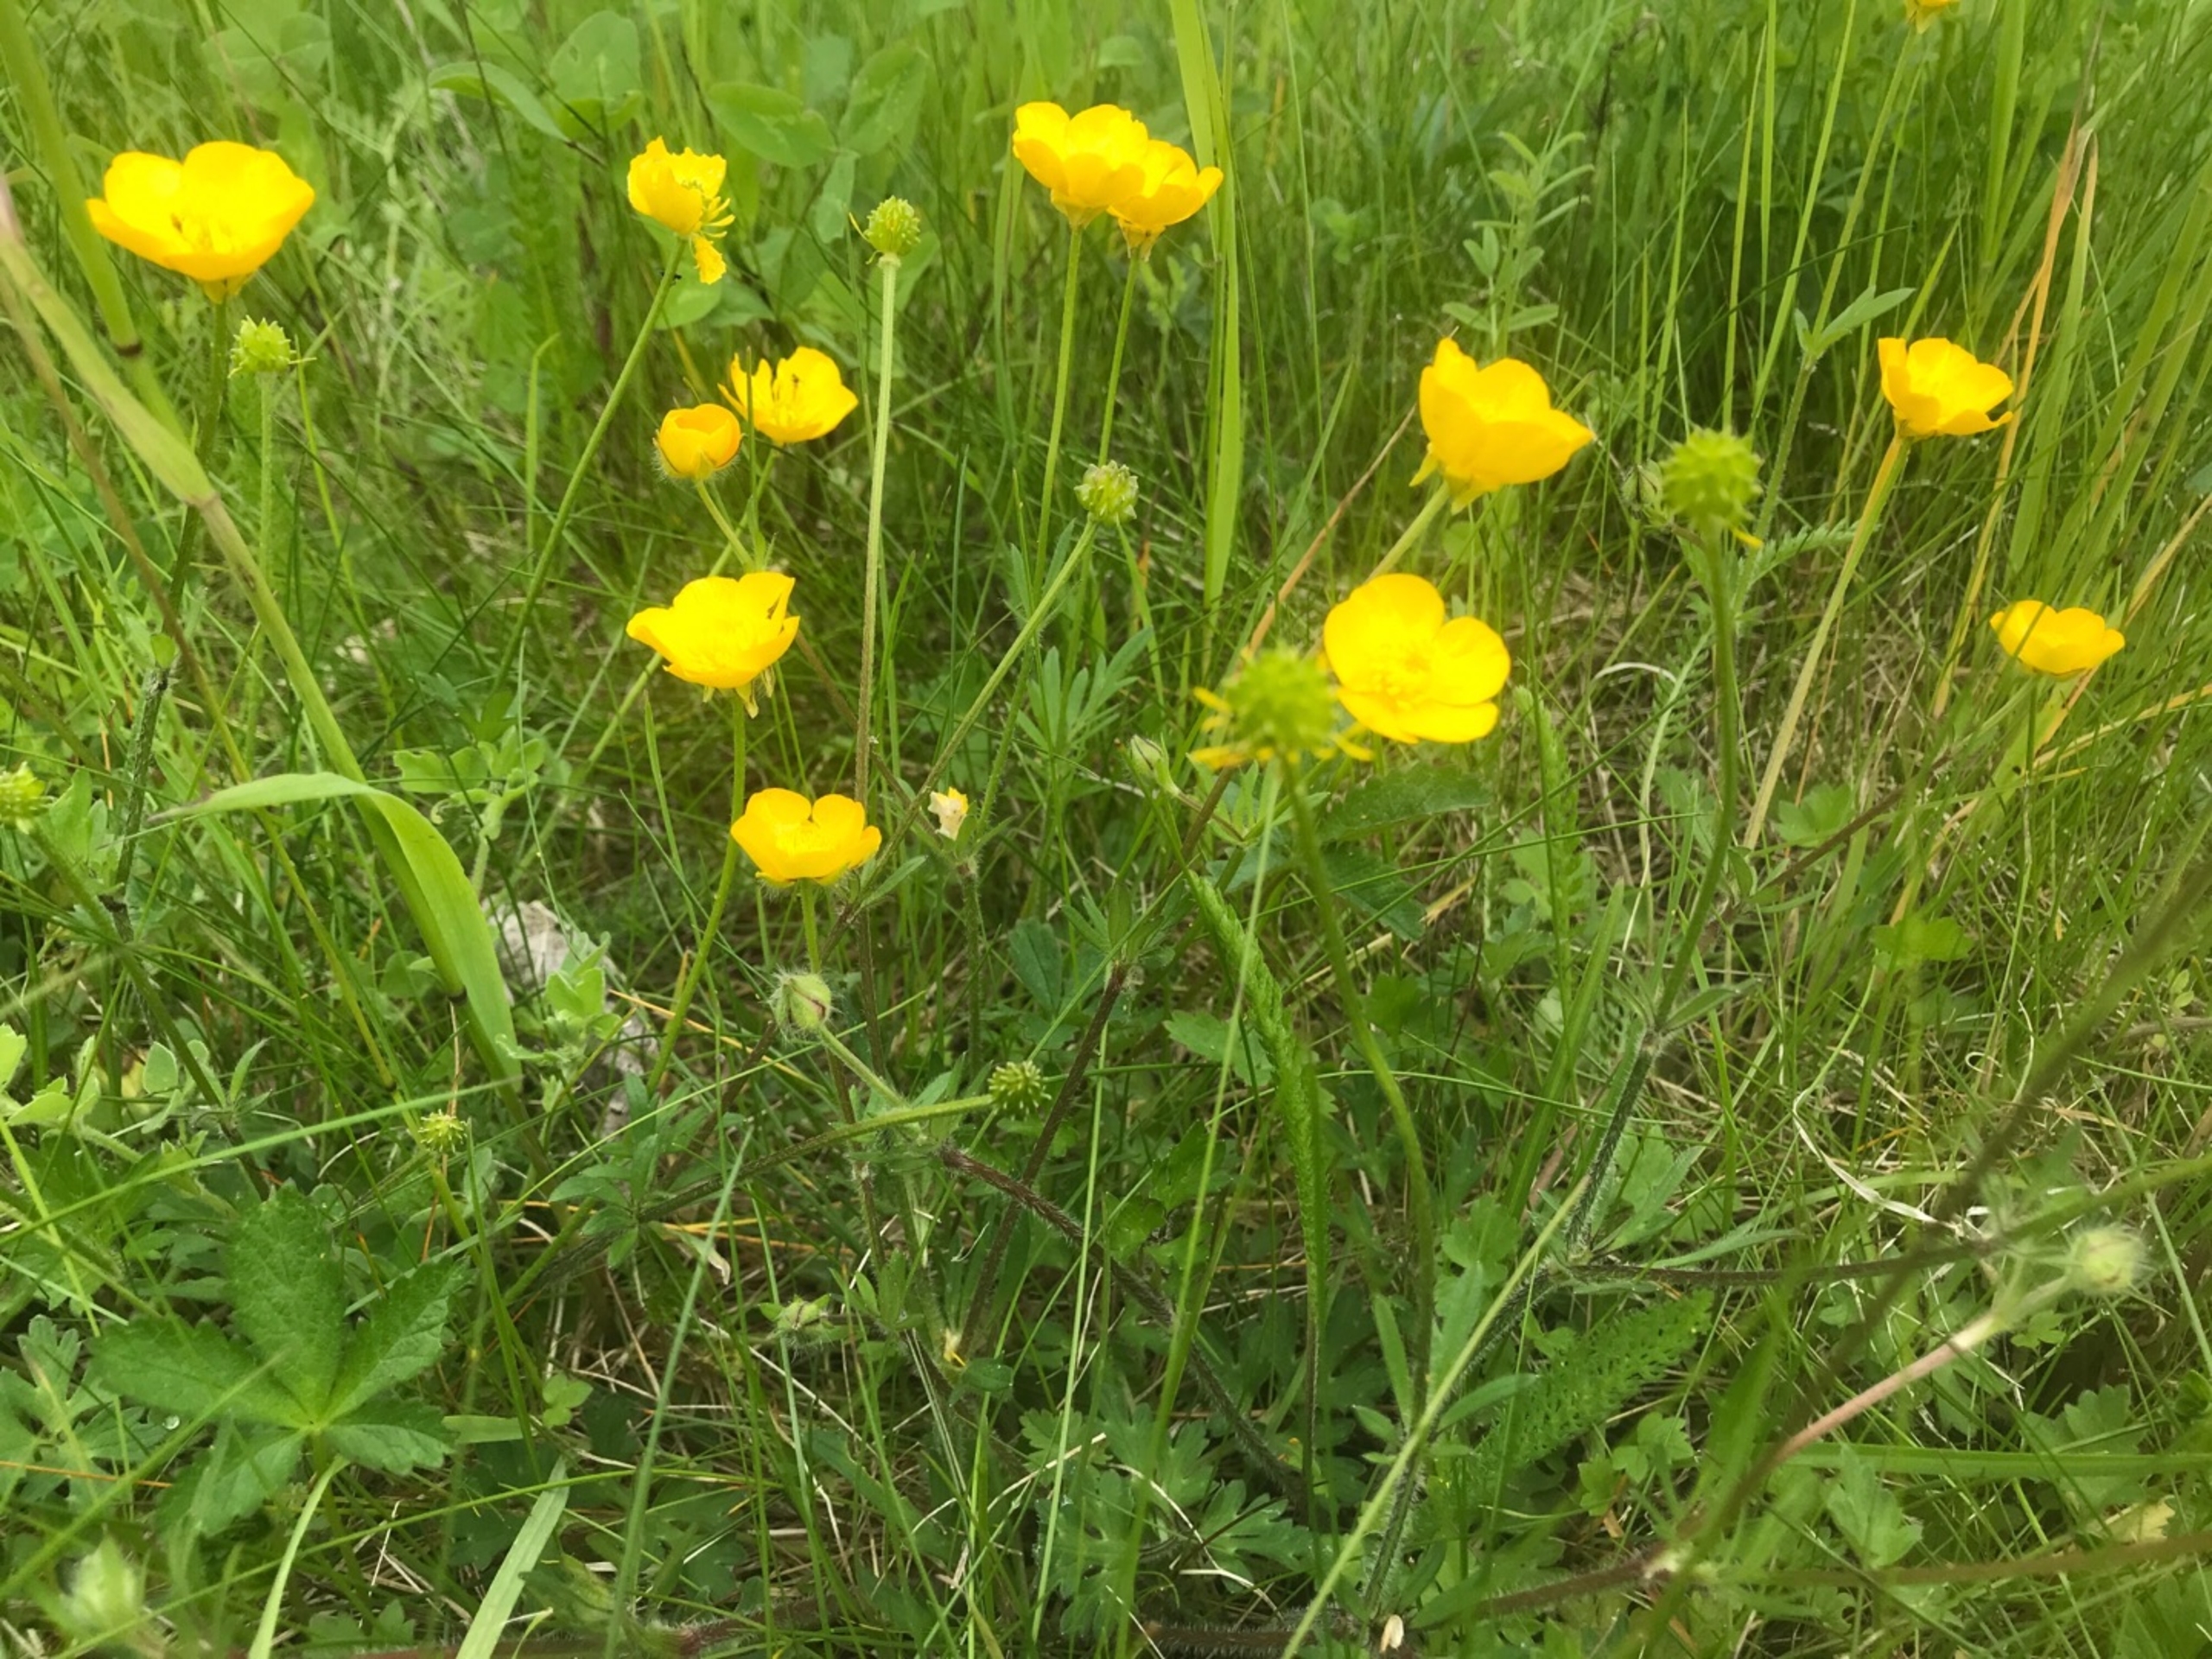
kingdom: Plantae
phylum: Tracheophyta
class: Magnoliopsida
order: Ranunculales
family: Ranunculaceae
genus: Ranunculus
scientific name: Ranunculus bulbosus
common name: Knold-ranunkel
